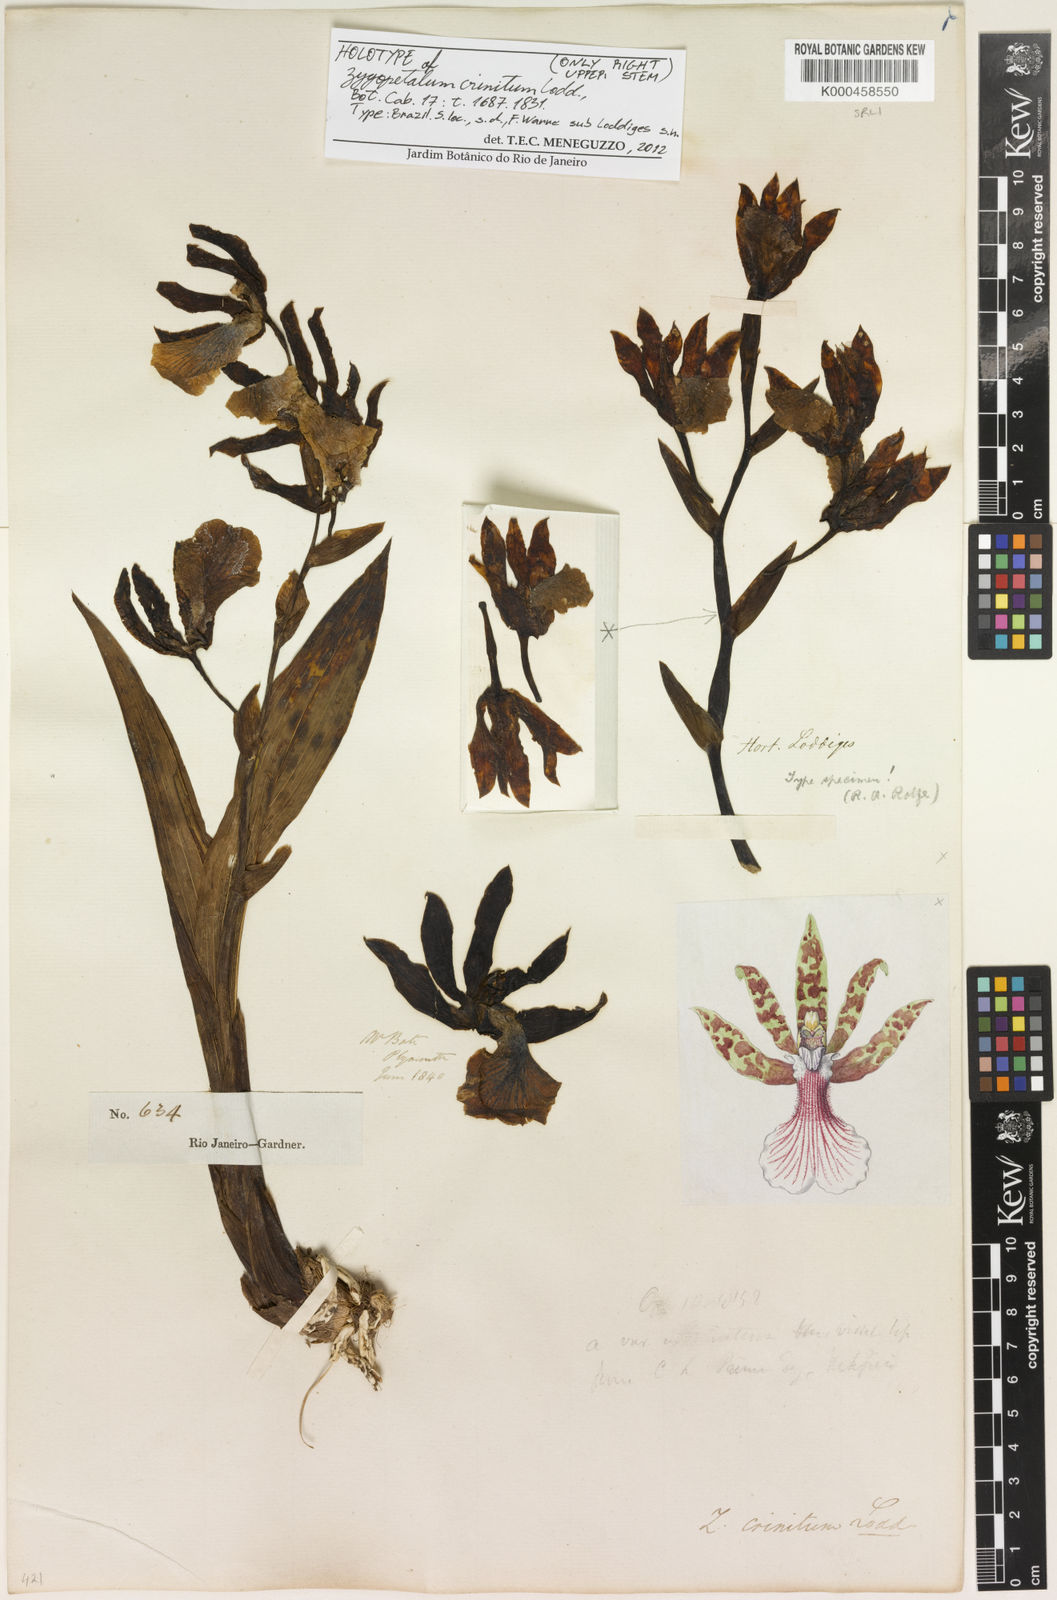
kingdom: Plantae
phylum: Tracheophyta
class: Liliopsida
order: Asparagales
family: Orchidaceae
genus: Zygopetalum
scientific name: Zygopetalum crinitum
